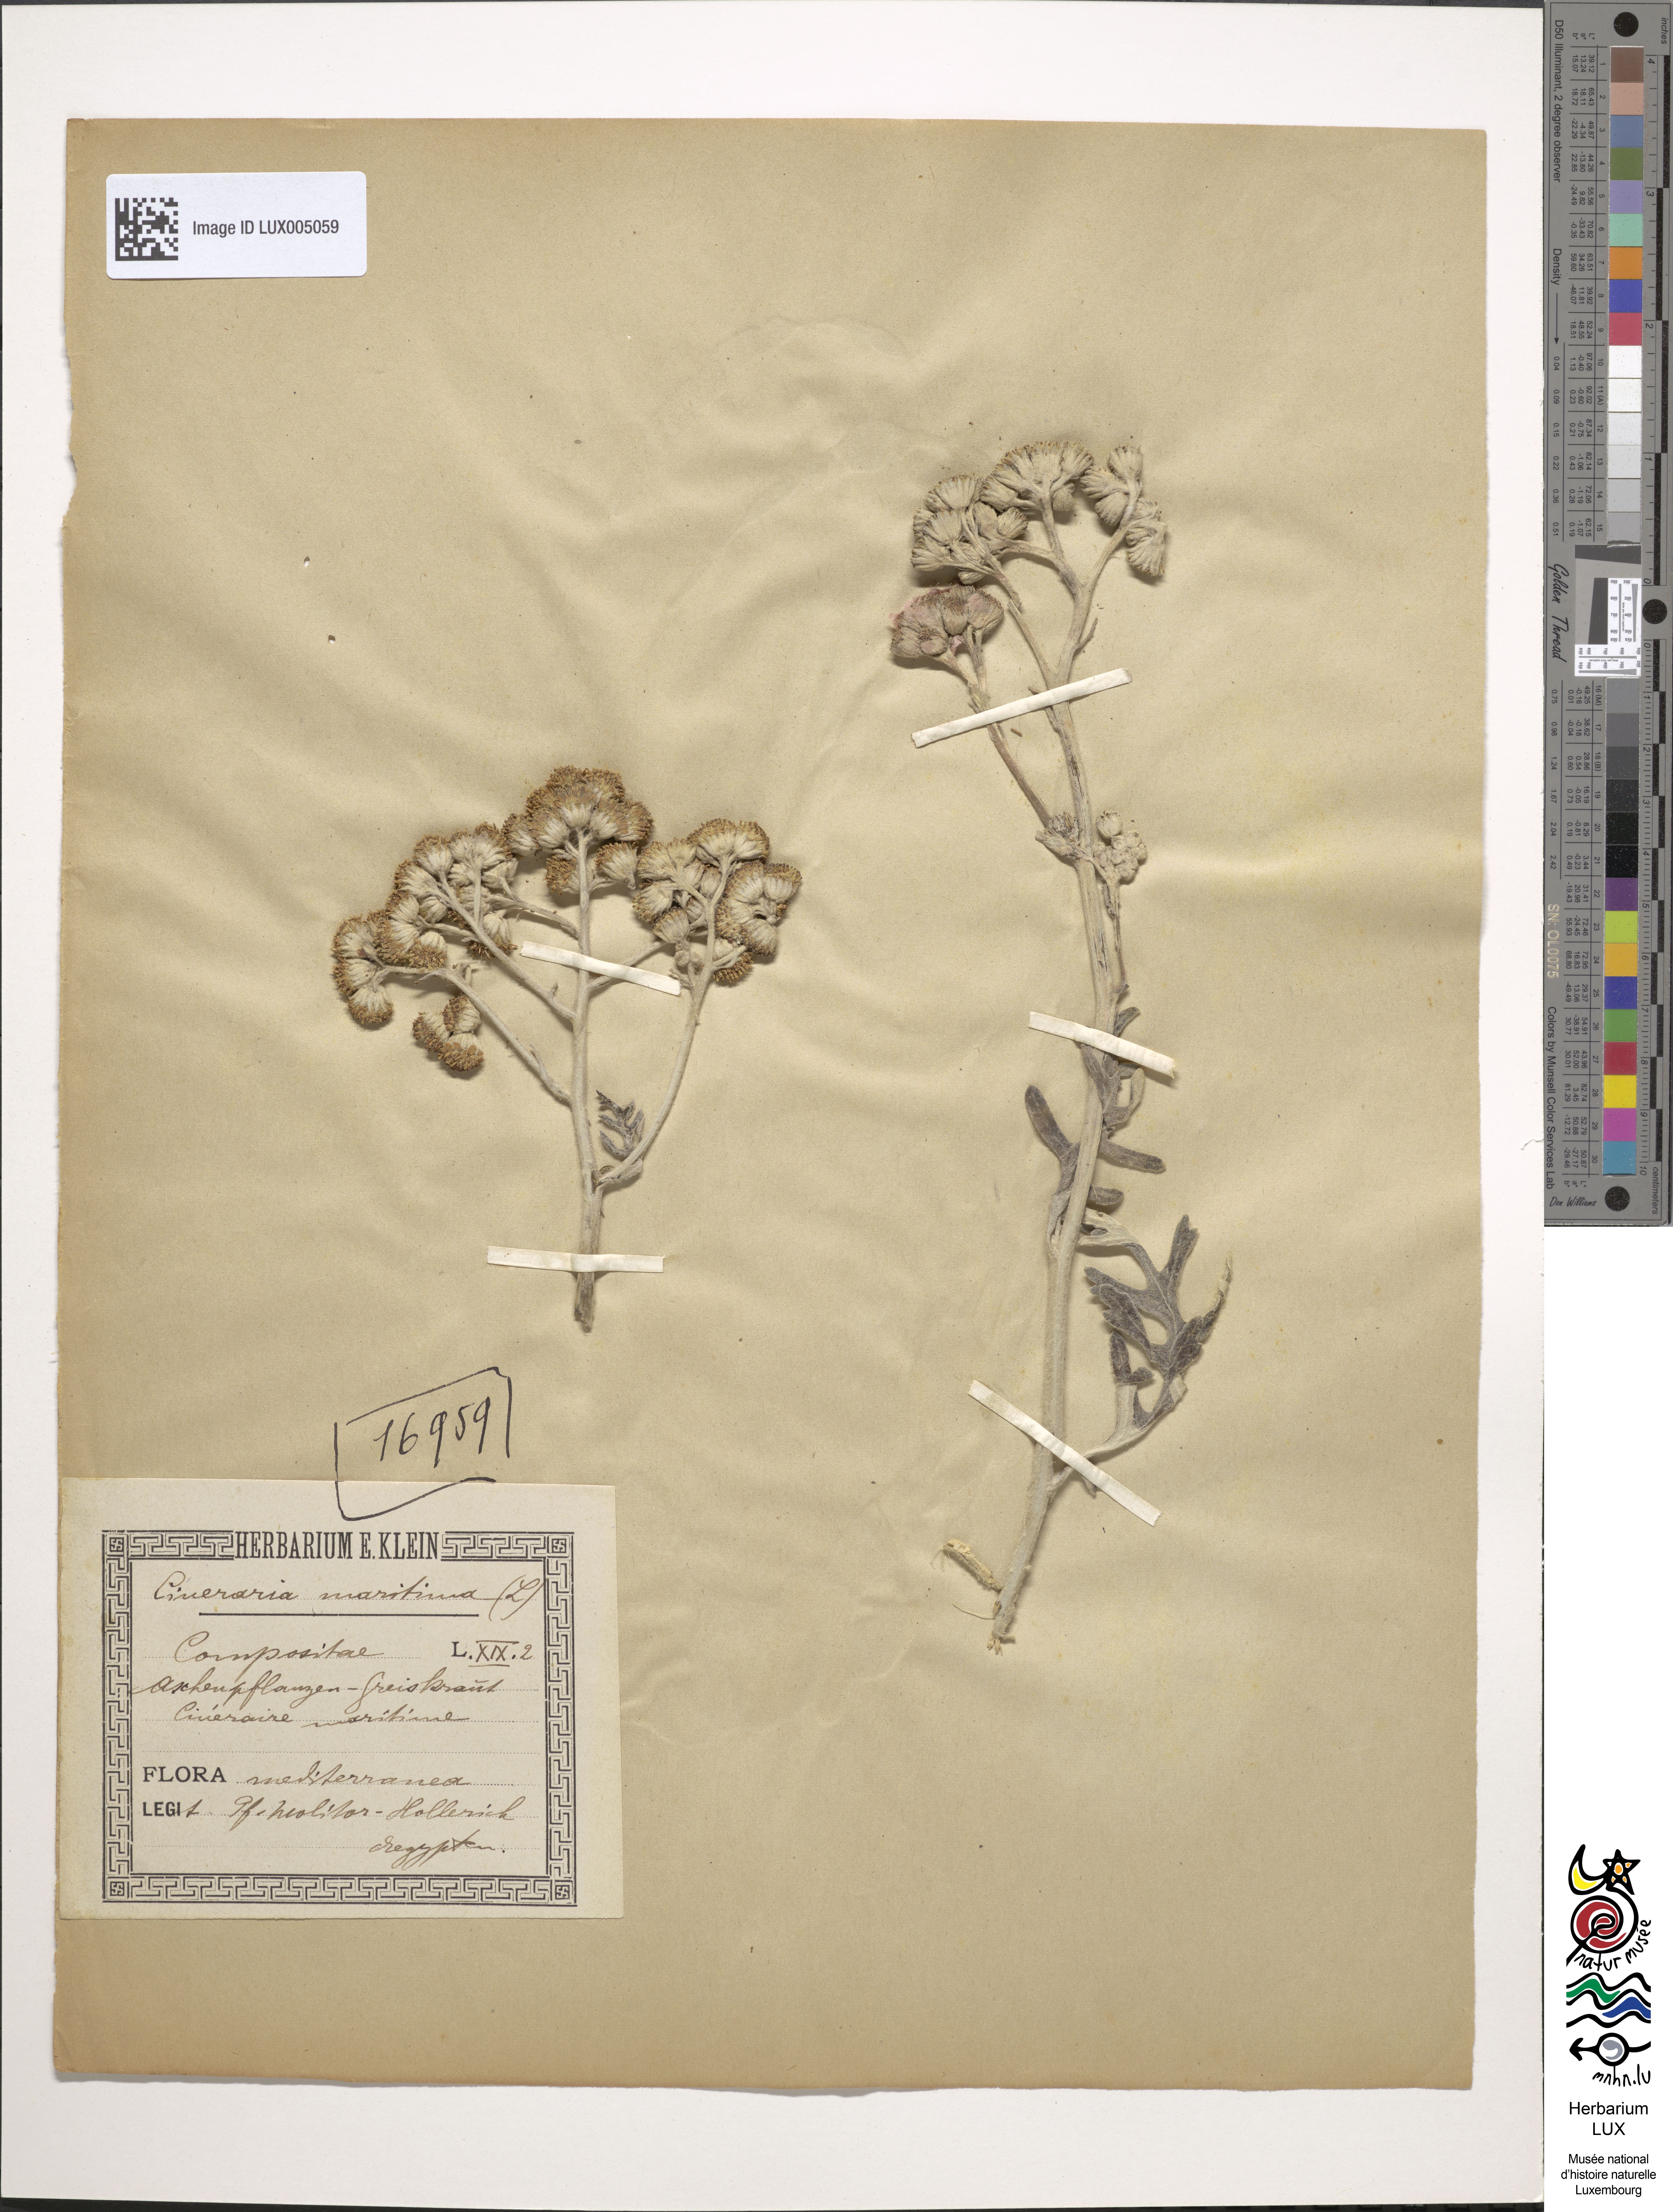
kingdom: Plantae
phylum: Tracheophyta
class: Magnoliopsida
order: Asterales
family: Asteraceae
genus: Jacobaea
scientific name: Jacobaea maritima
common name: Silver ragwort
